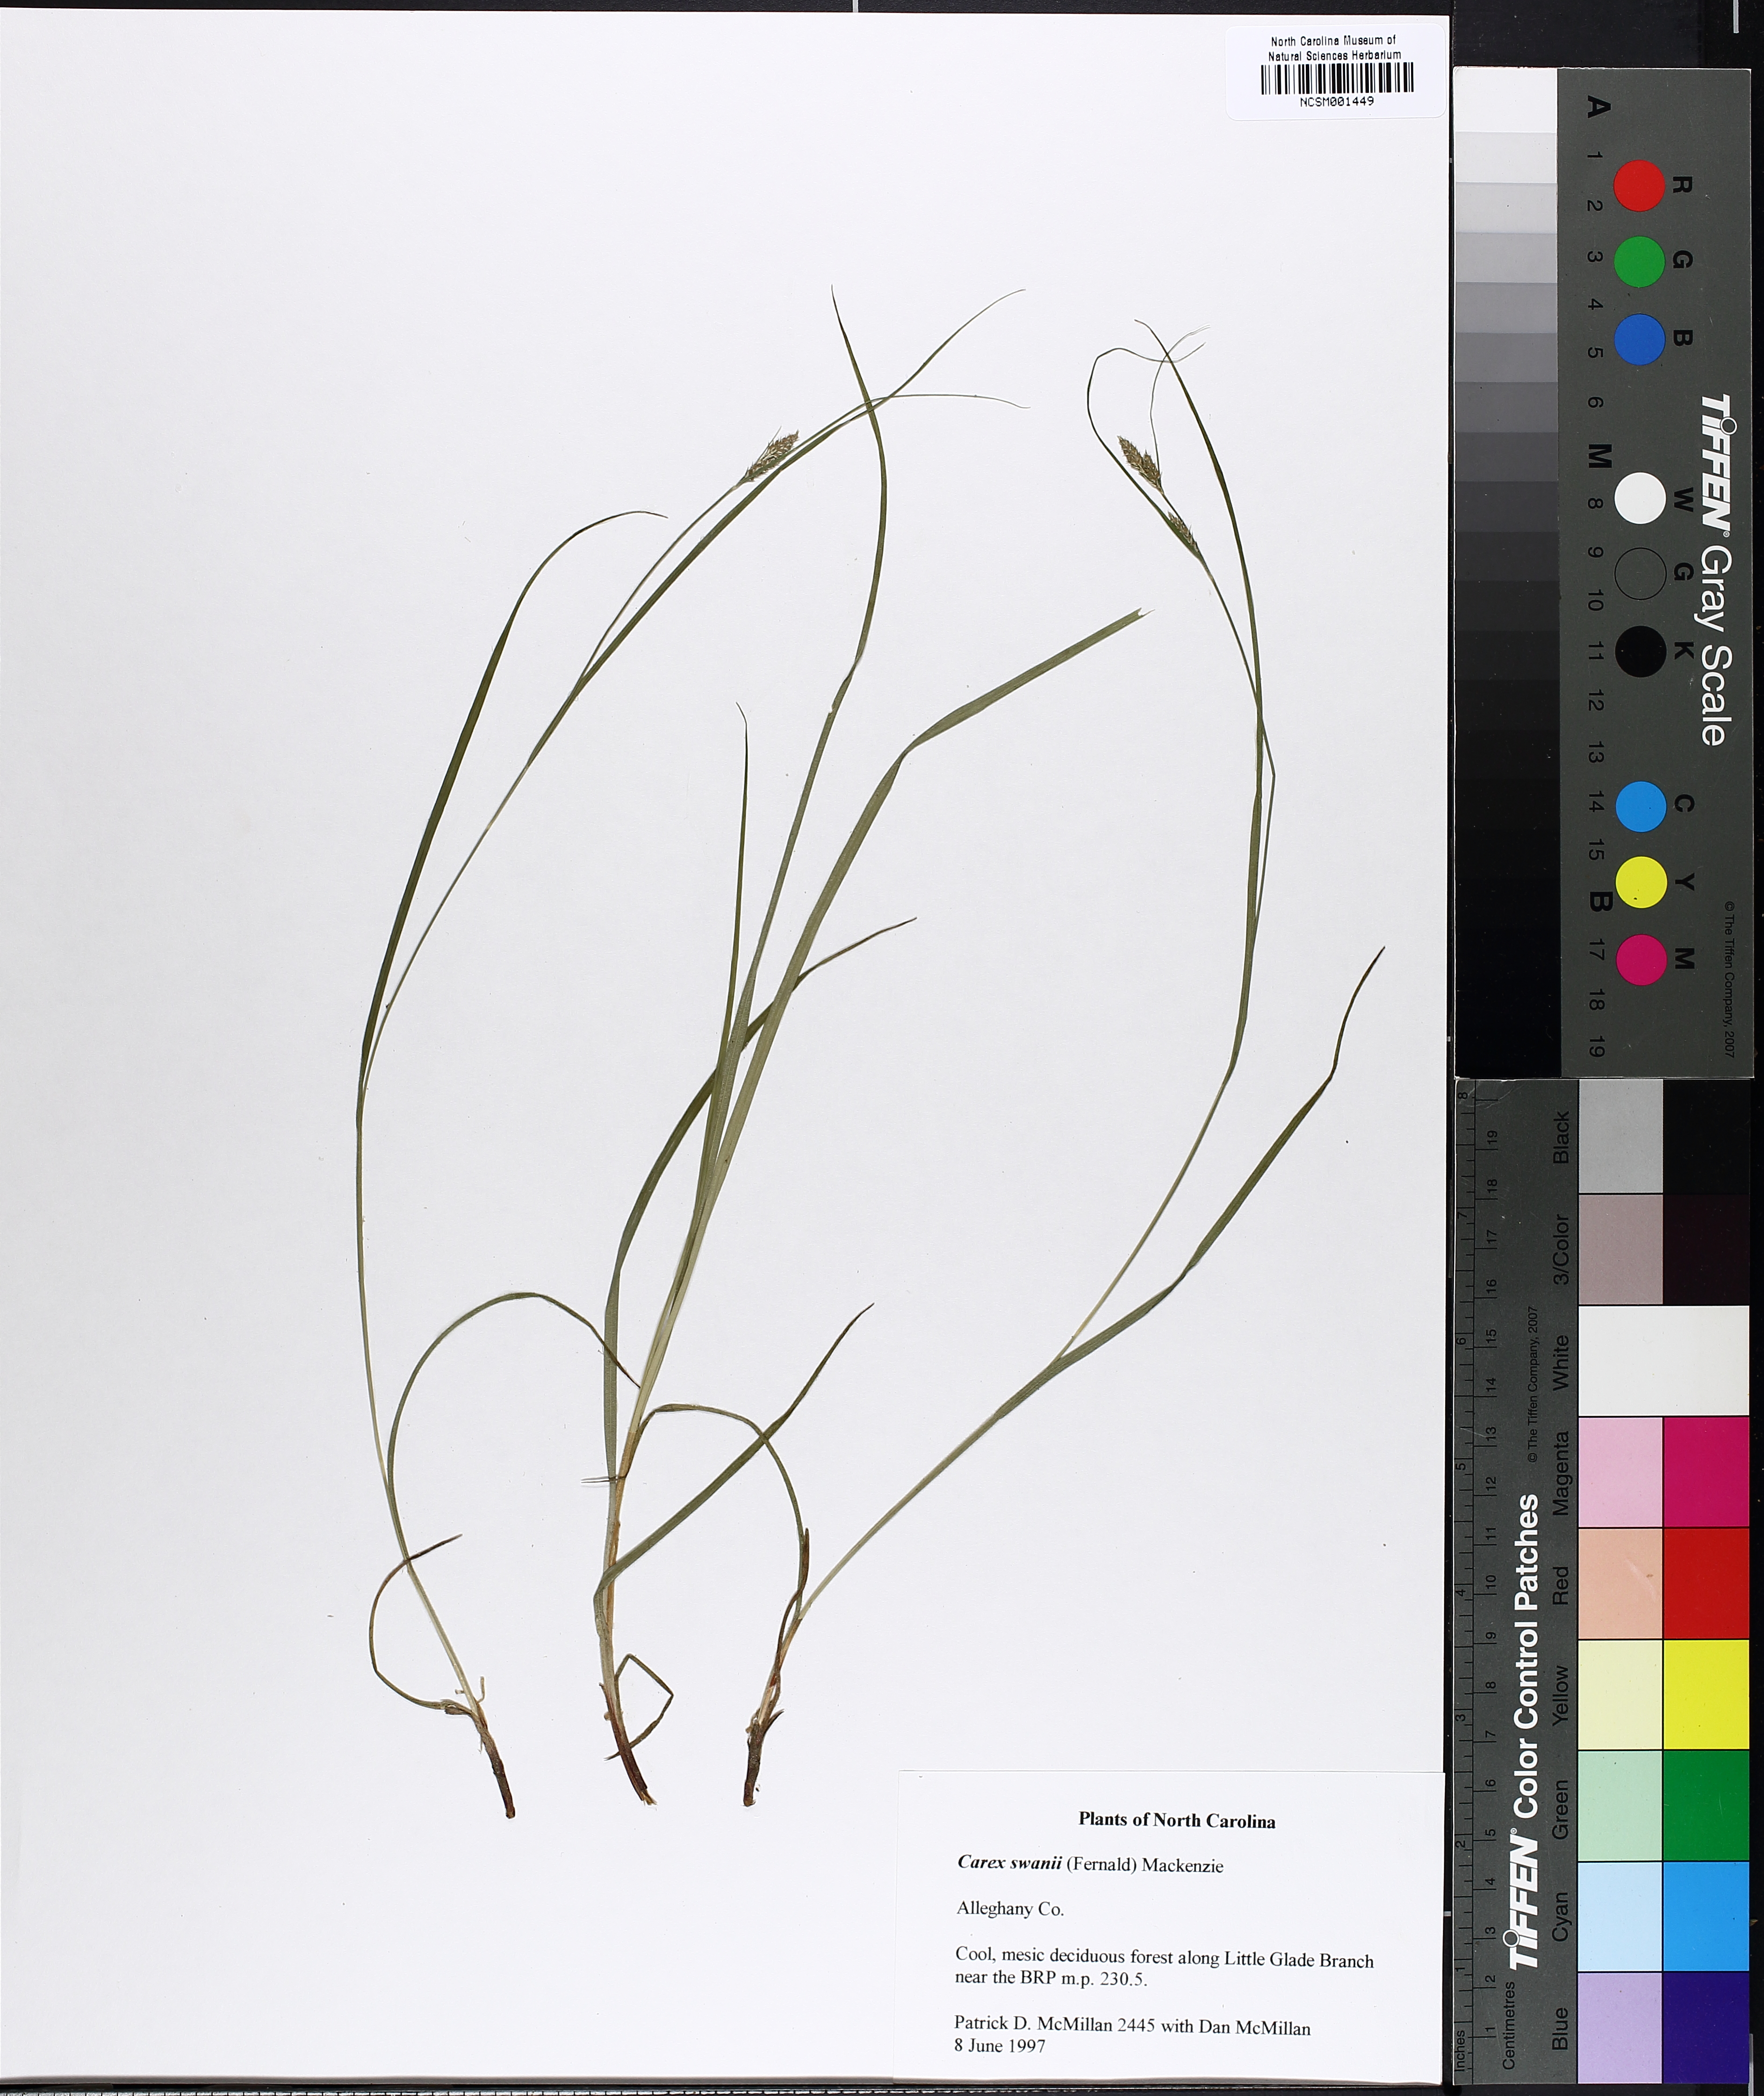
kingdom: Plantae
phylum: Tracheophyta
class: Liliopsida
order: Poales
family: Cyperaceae
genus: Carex
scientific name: Carex swanii
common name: Downy green sedge
